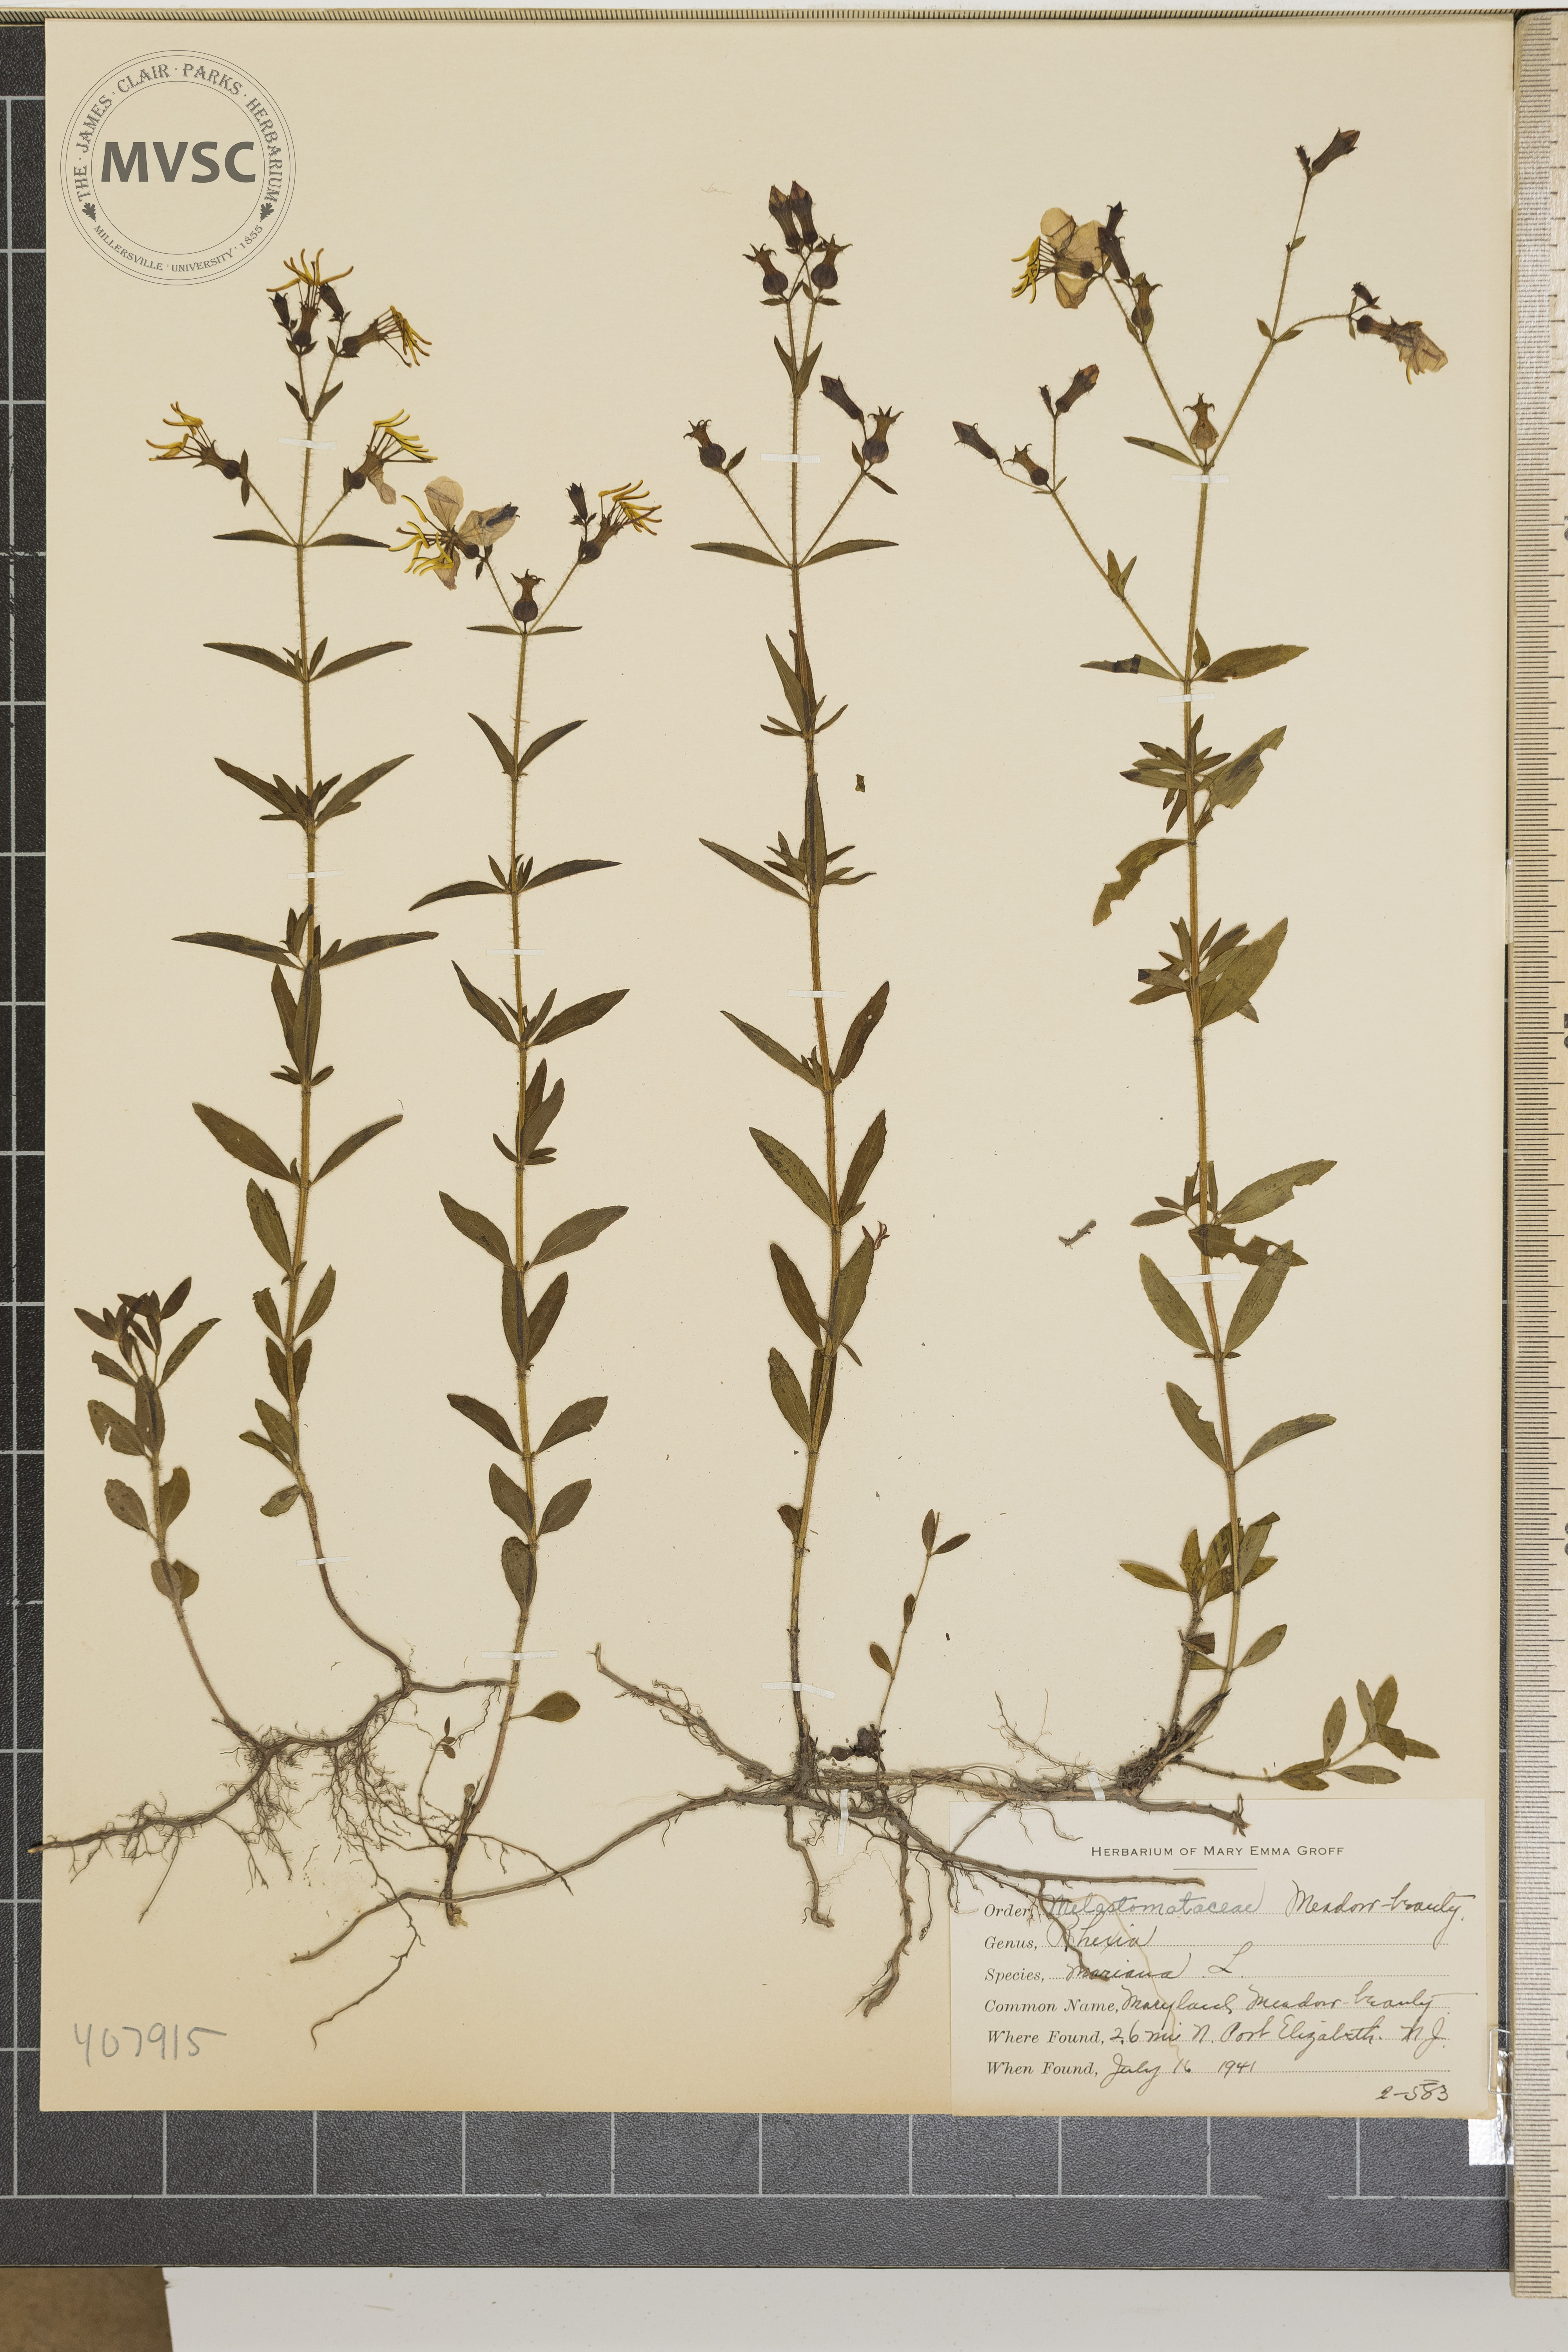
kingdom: Plantae
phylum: Tracheophyta
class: Magnoliopsida
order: Myrtales
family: Melastomataceae
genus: Rhexia
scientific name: Rhexia mariana
